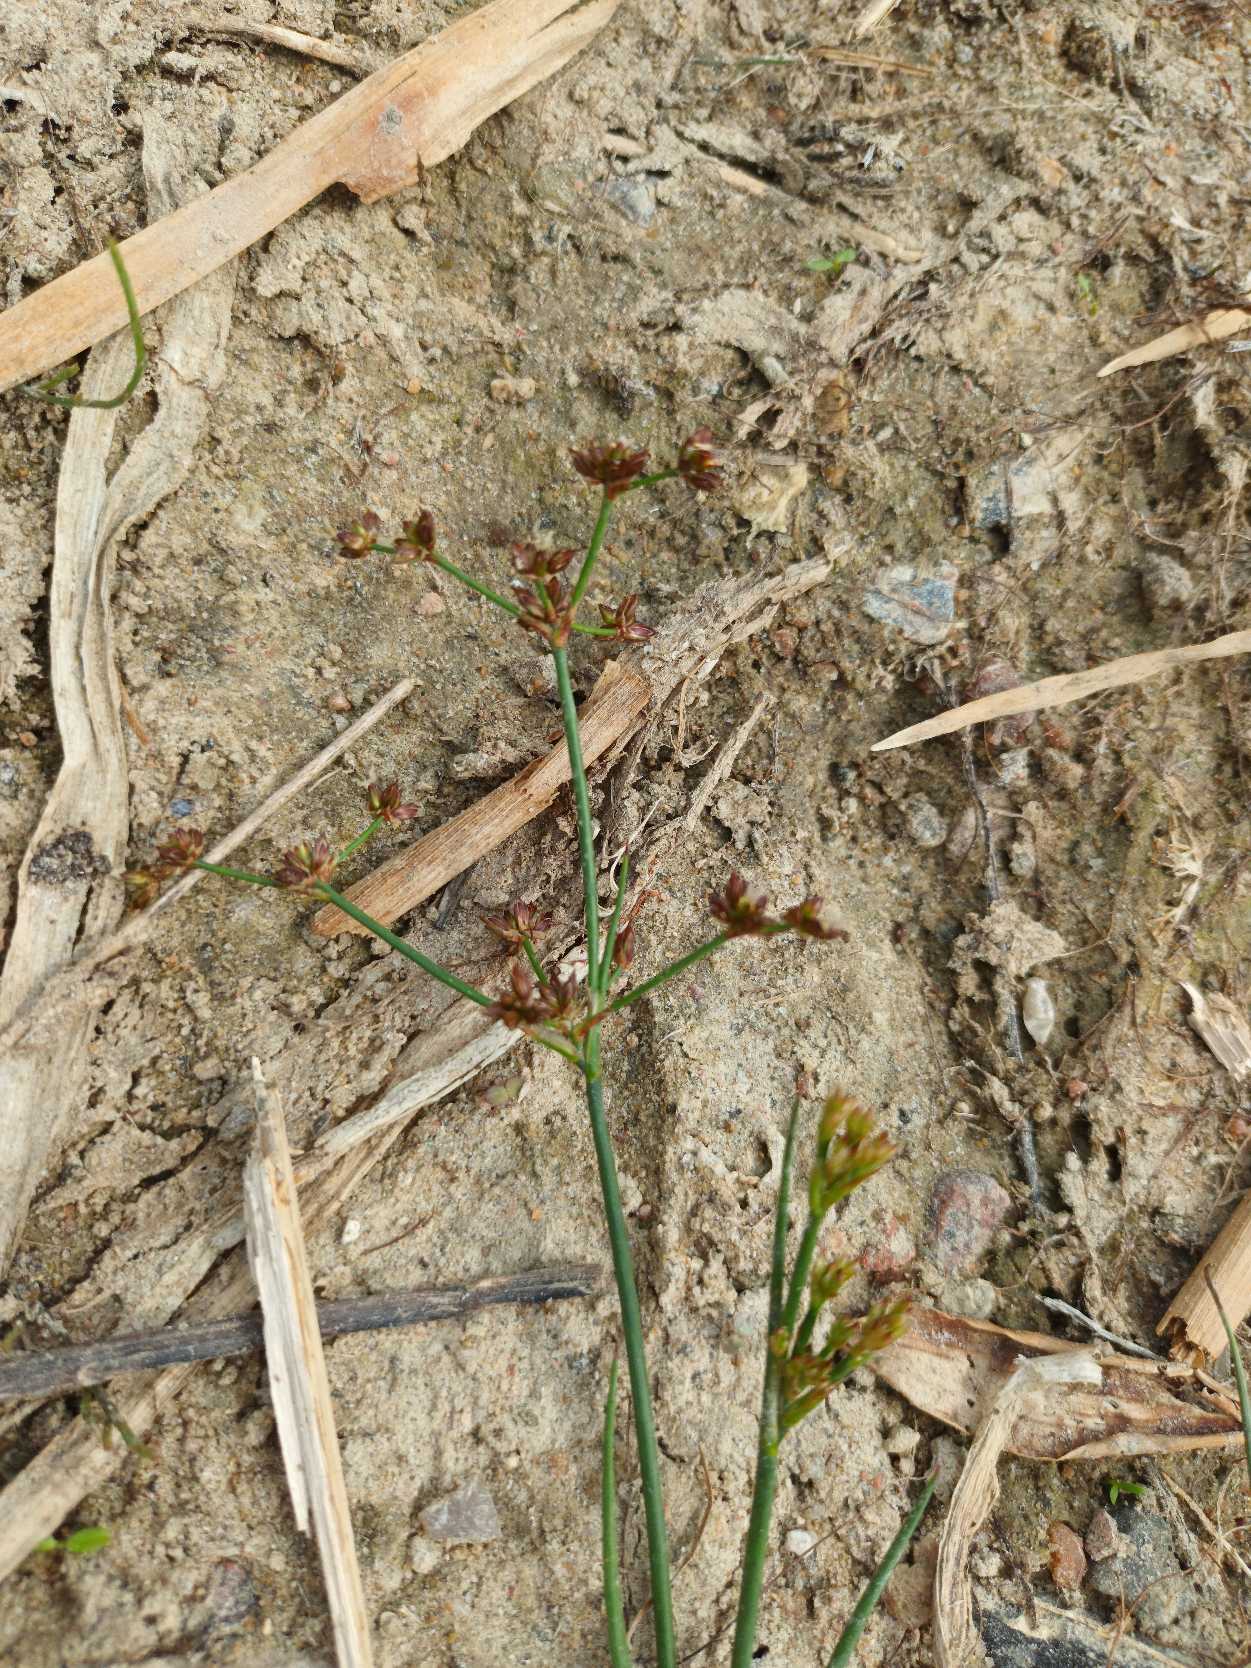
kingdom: Plantae
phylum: Tracheophyta
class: Liliopsida
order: Poales
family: Juncaceae
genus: Juncus
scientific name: Juncus articulatus
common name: Glanskapslet siv
